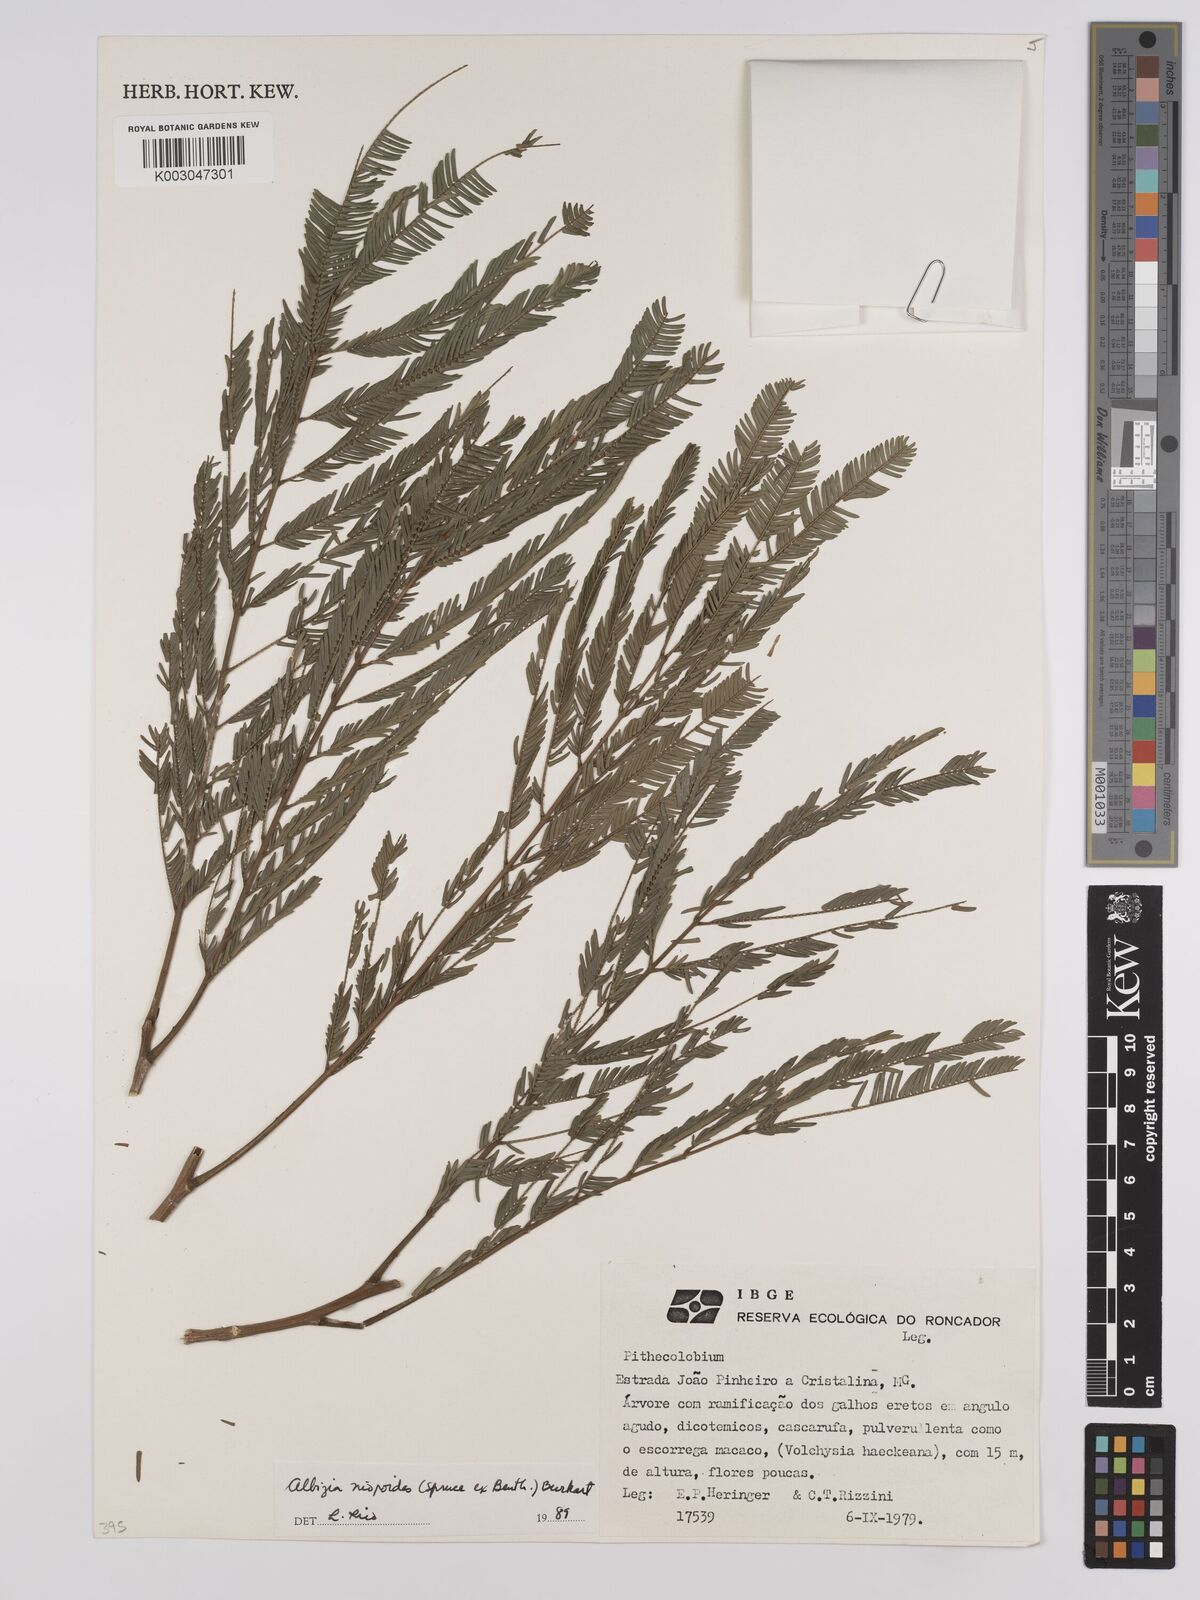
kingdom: Plantae
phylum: Tracheophyta
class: Magnoliopsida
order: Fabales
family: Fabaceae
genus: Albizia
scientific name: Albizia niopoides
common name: Silk tree
